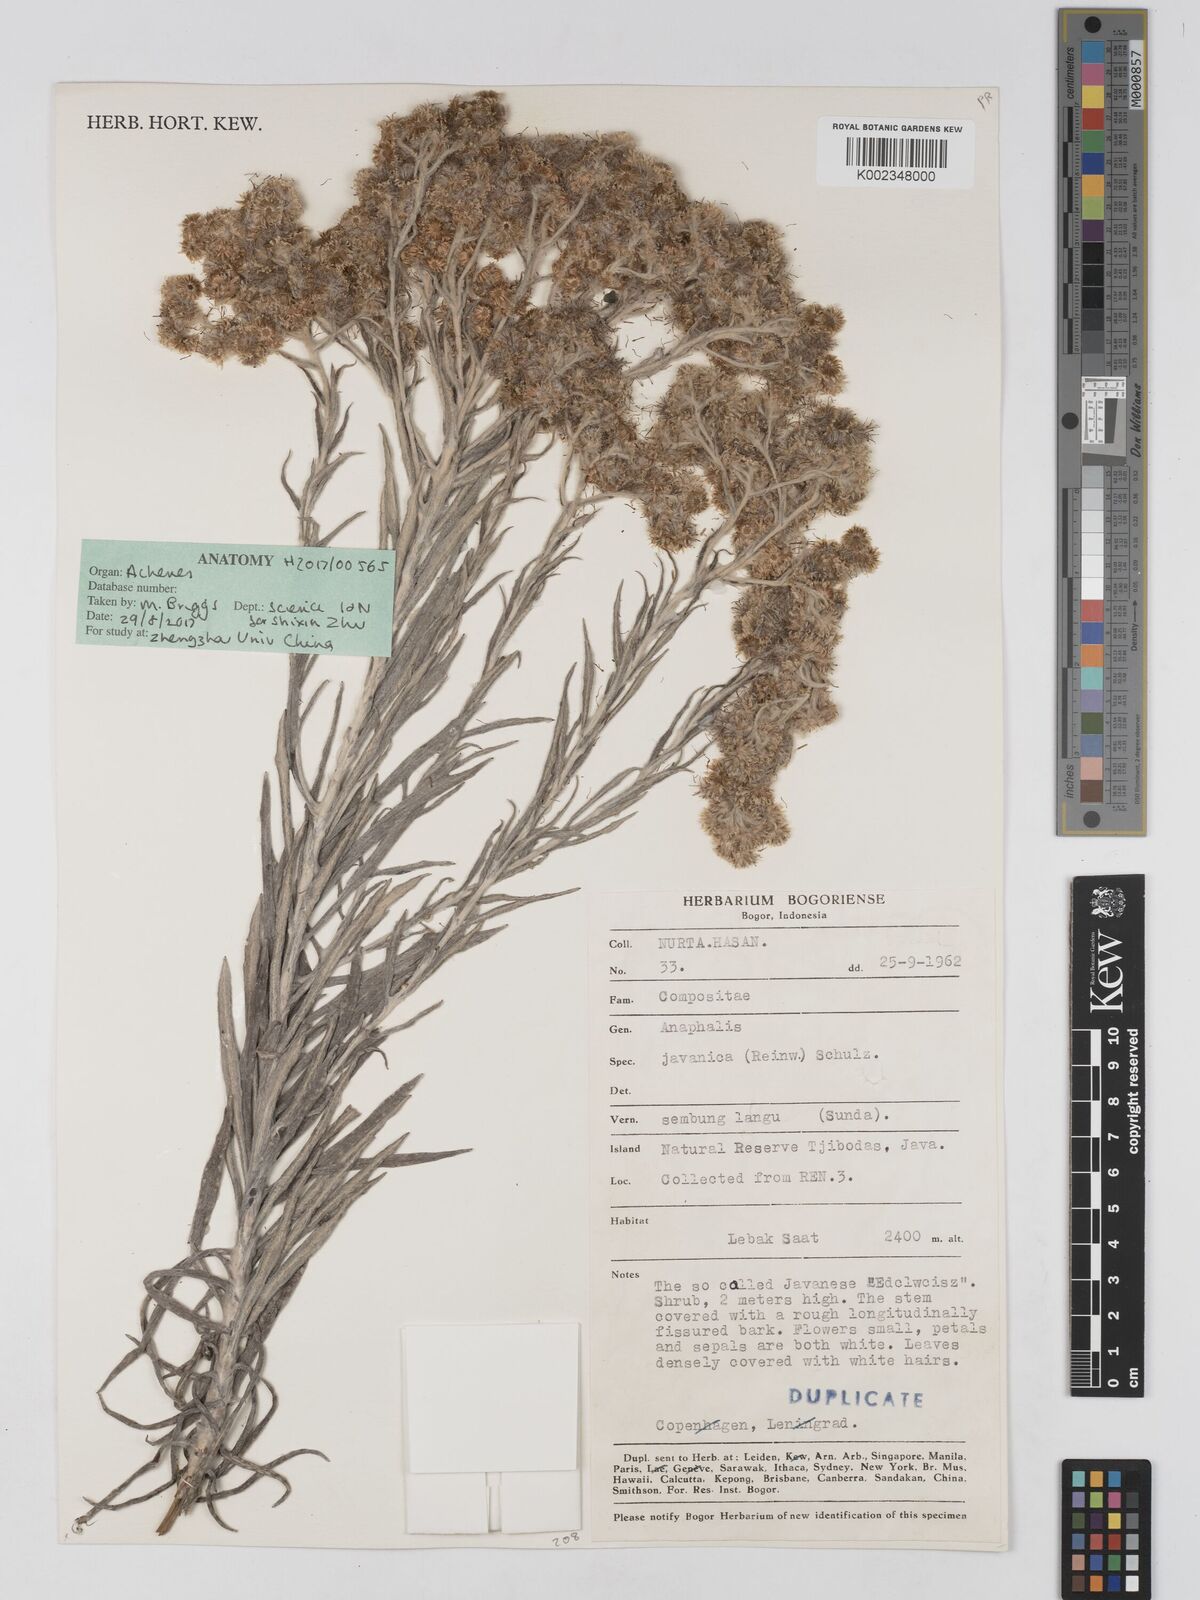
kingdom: Plantae
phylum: Tracheophyta
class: Magnoliopsida
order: Asterales
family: Asteraceae
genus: Anaphalis
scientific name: Anaphalis javanica
